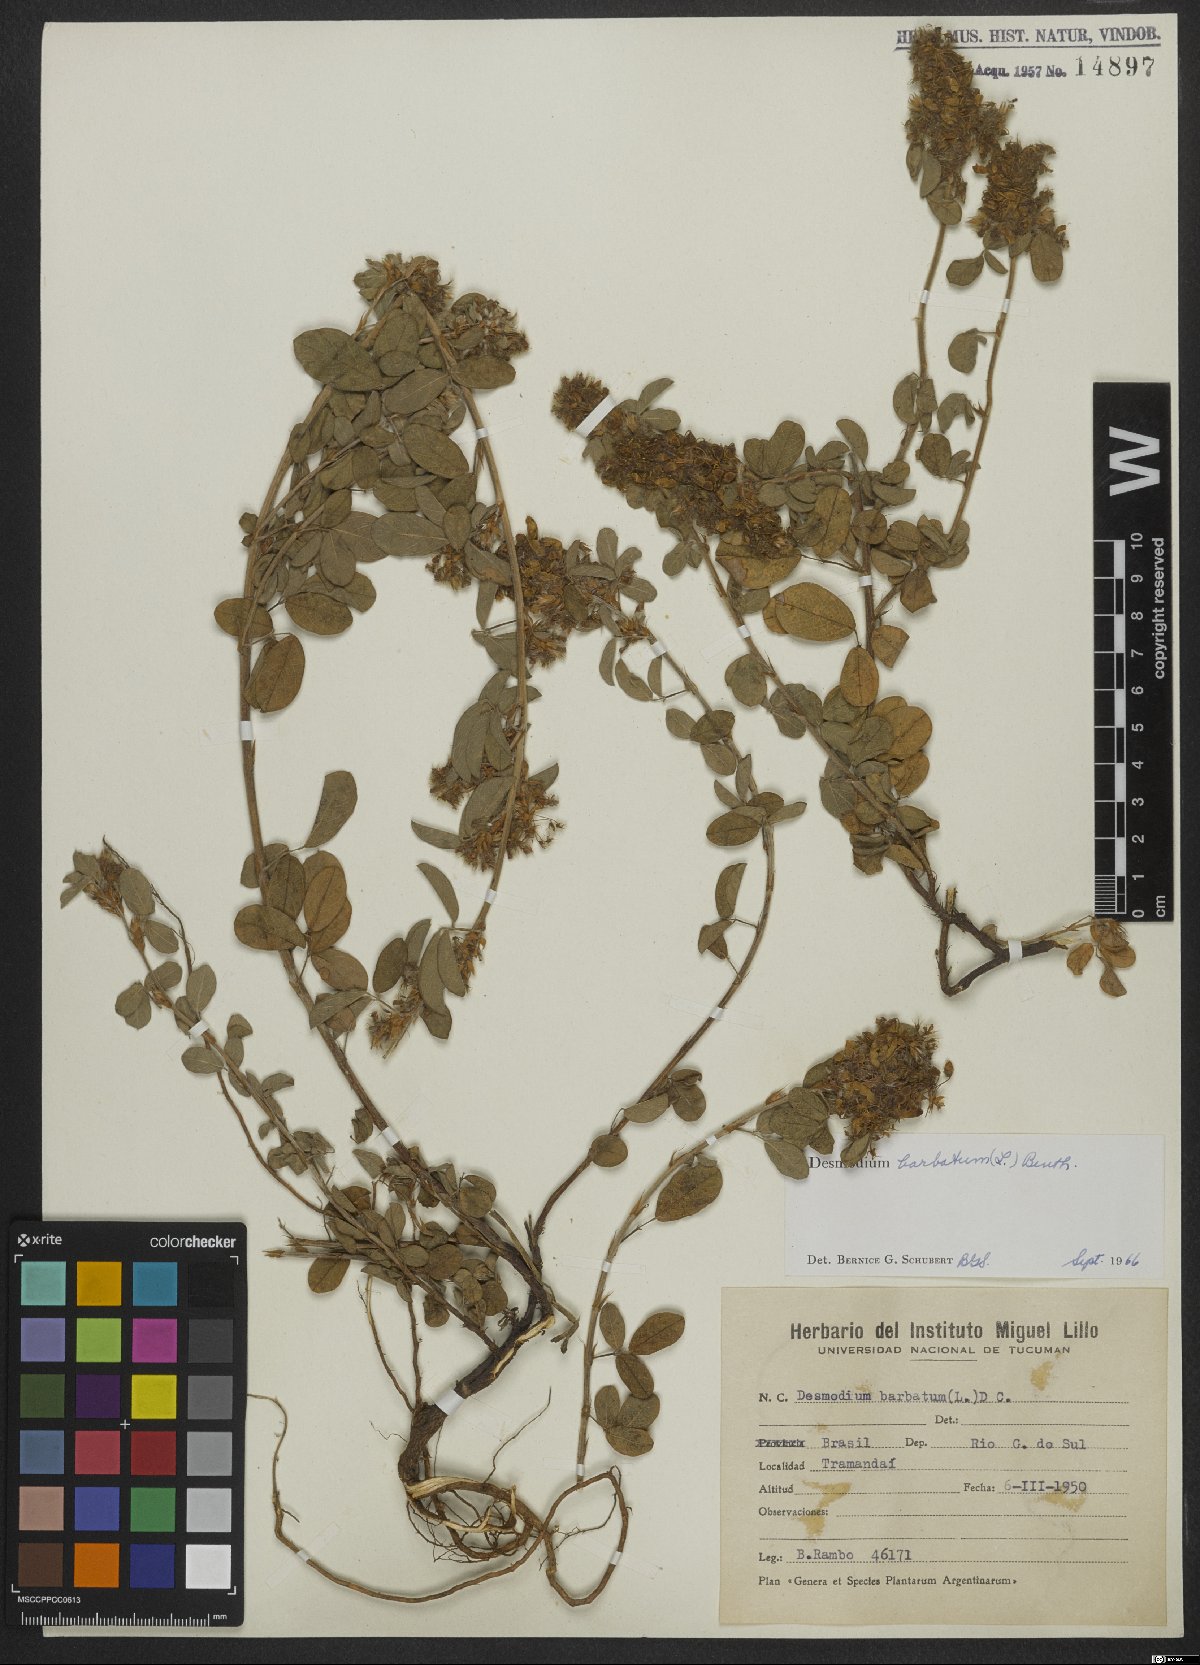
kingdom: Plantae
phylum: Tracheophyta
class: Magnoliopsida
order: Fabales
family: Fabaceae
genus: Grona
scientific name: Grona barbata
